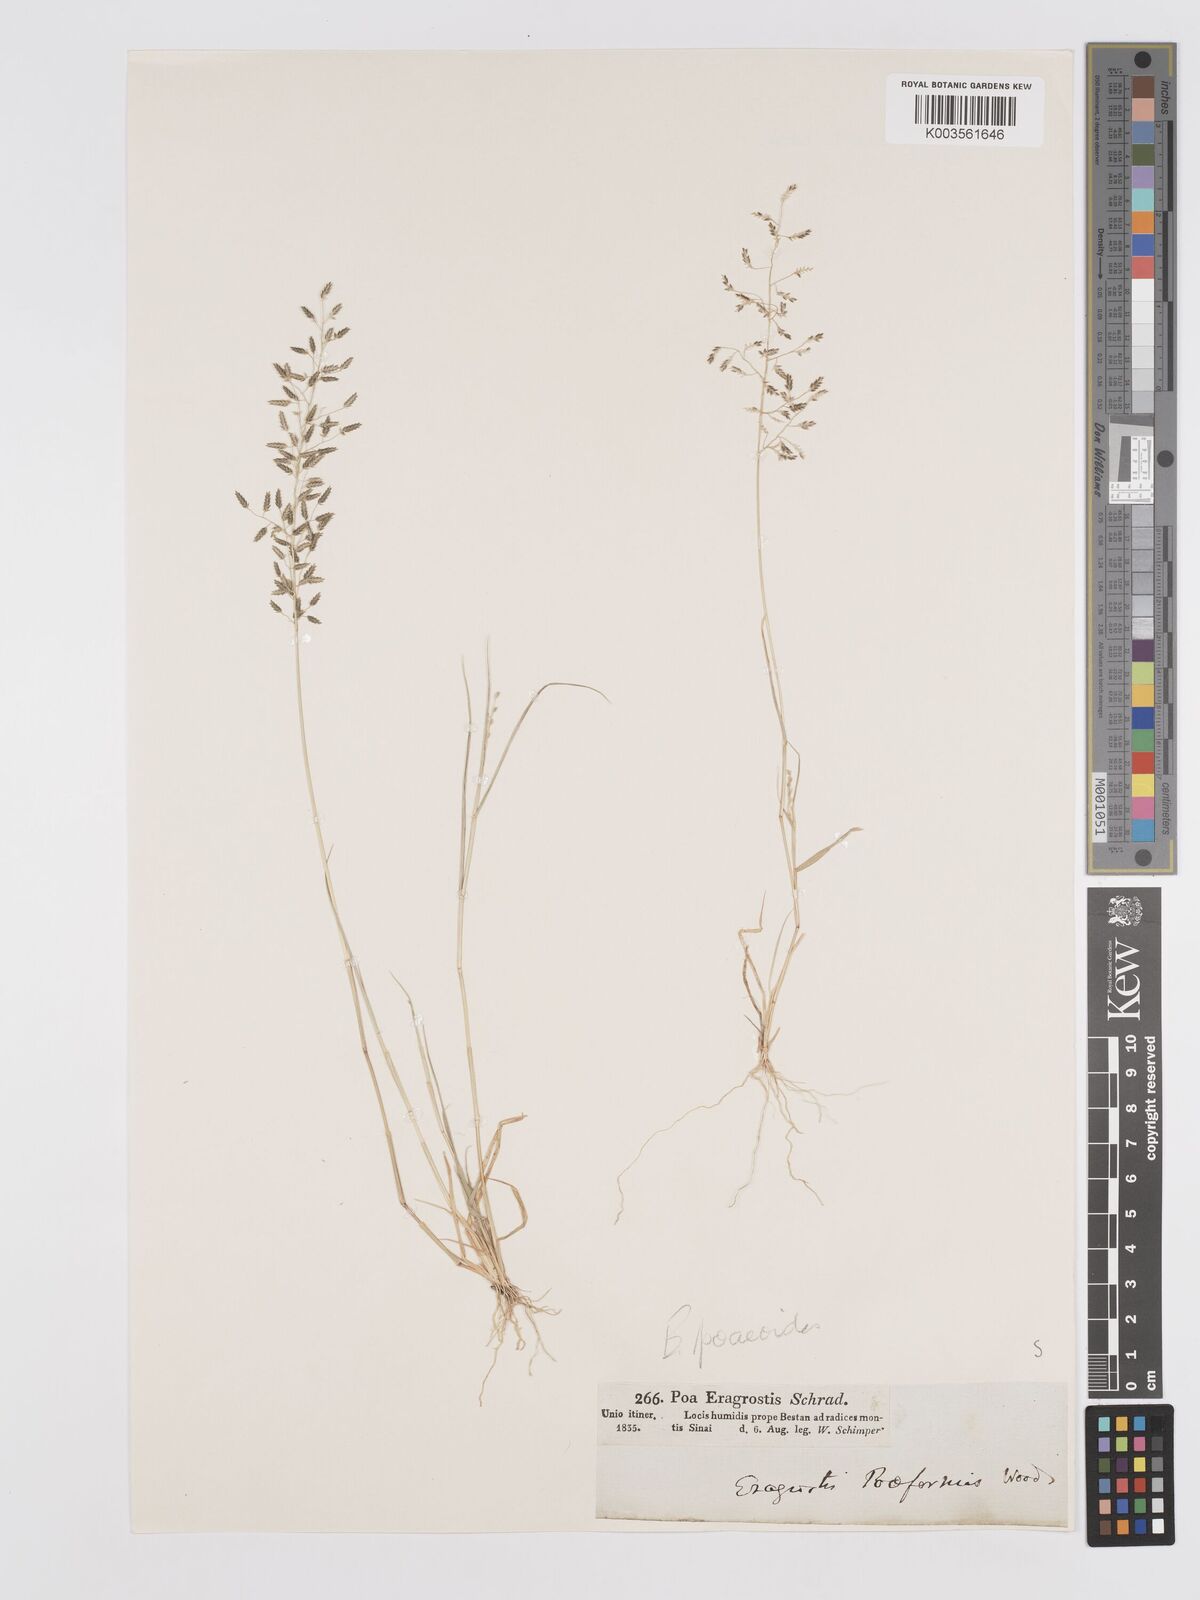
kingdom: Plantae
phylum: Tracheophyta
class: Liliopsida
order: Poales
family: Poaceae
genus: Eragrostis
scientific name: Eragrostis minor
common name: Small love-grass
